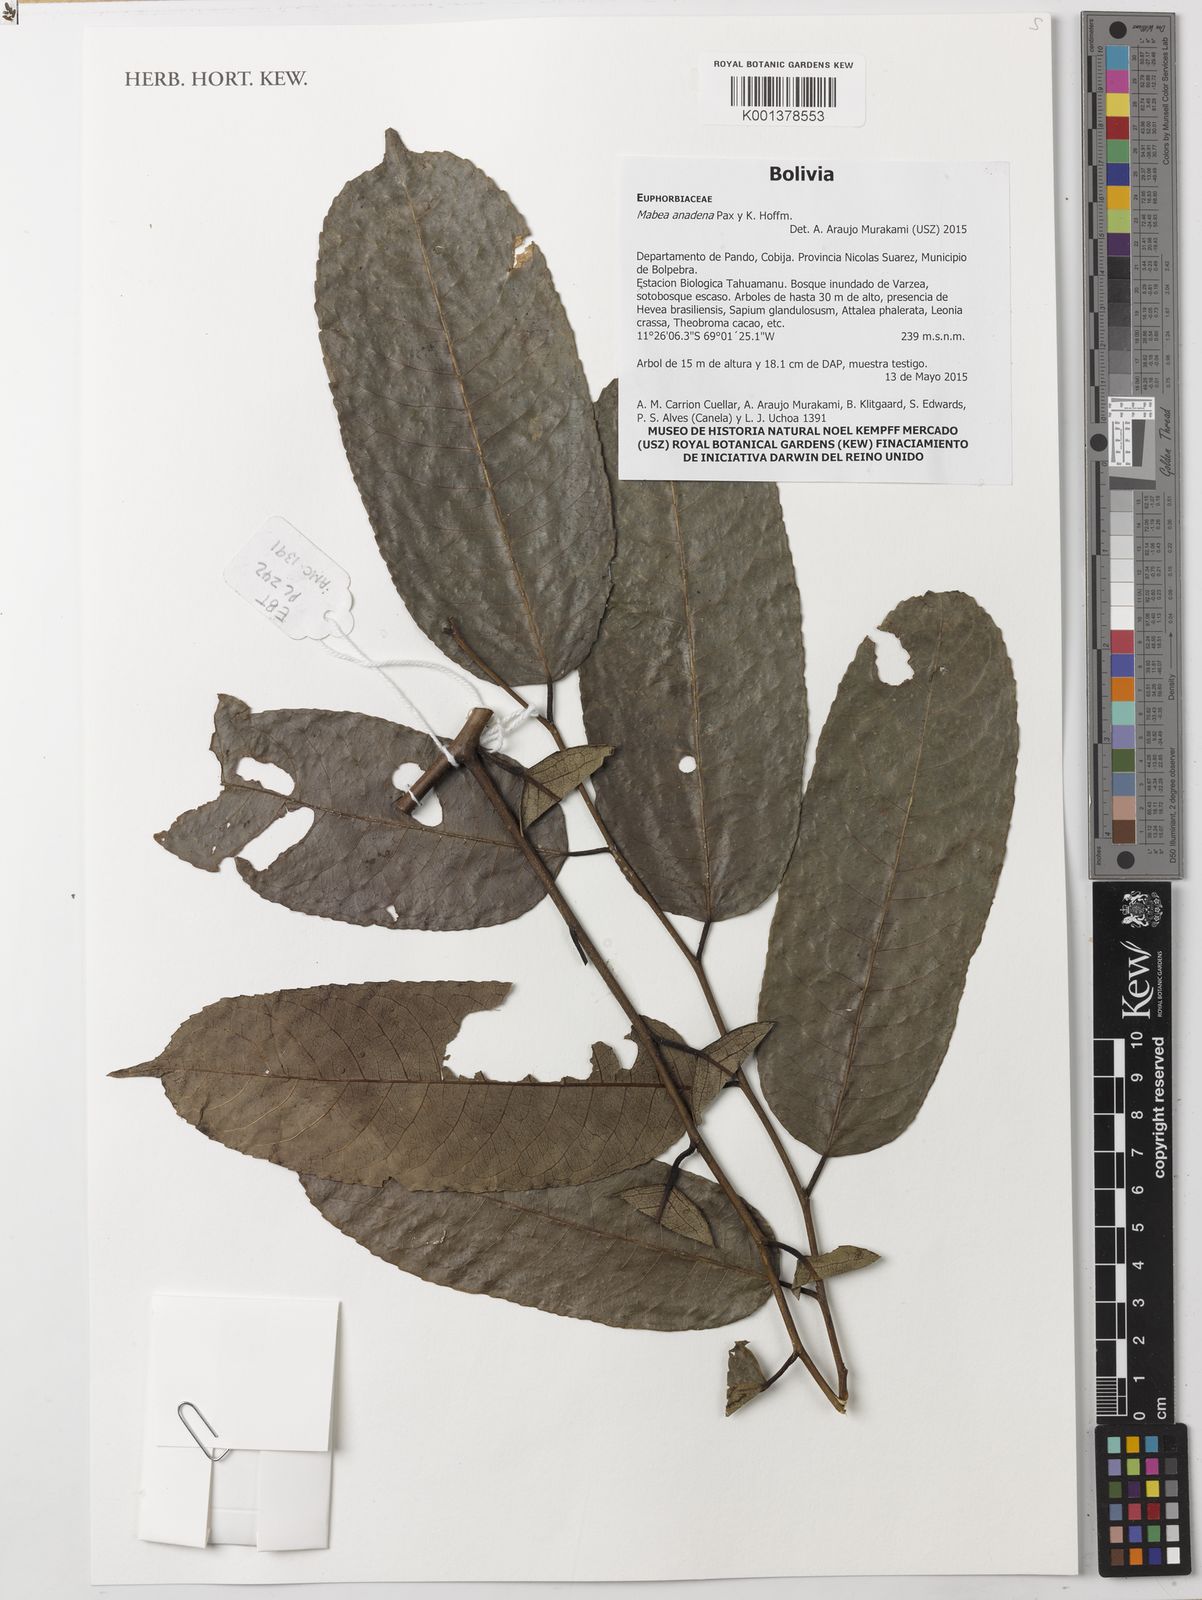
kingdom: Plantae
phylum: Tracheophyta
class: Magnoliopsida
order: Malpighiales
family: Euphorbiaceae
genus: Mabea
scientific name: Mabea anadena
